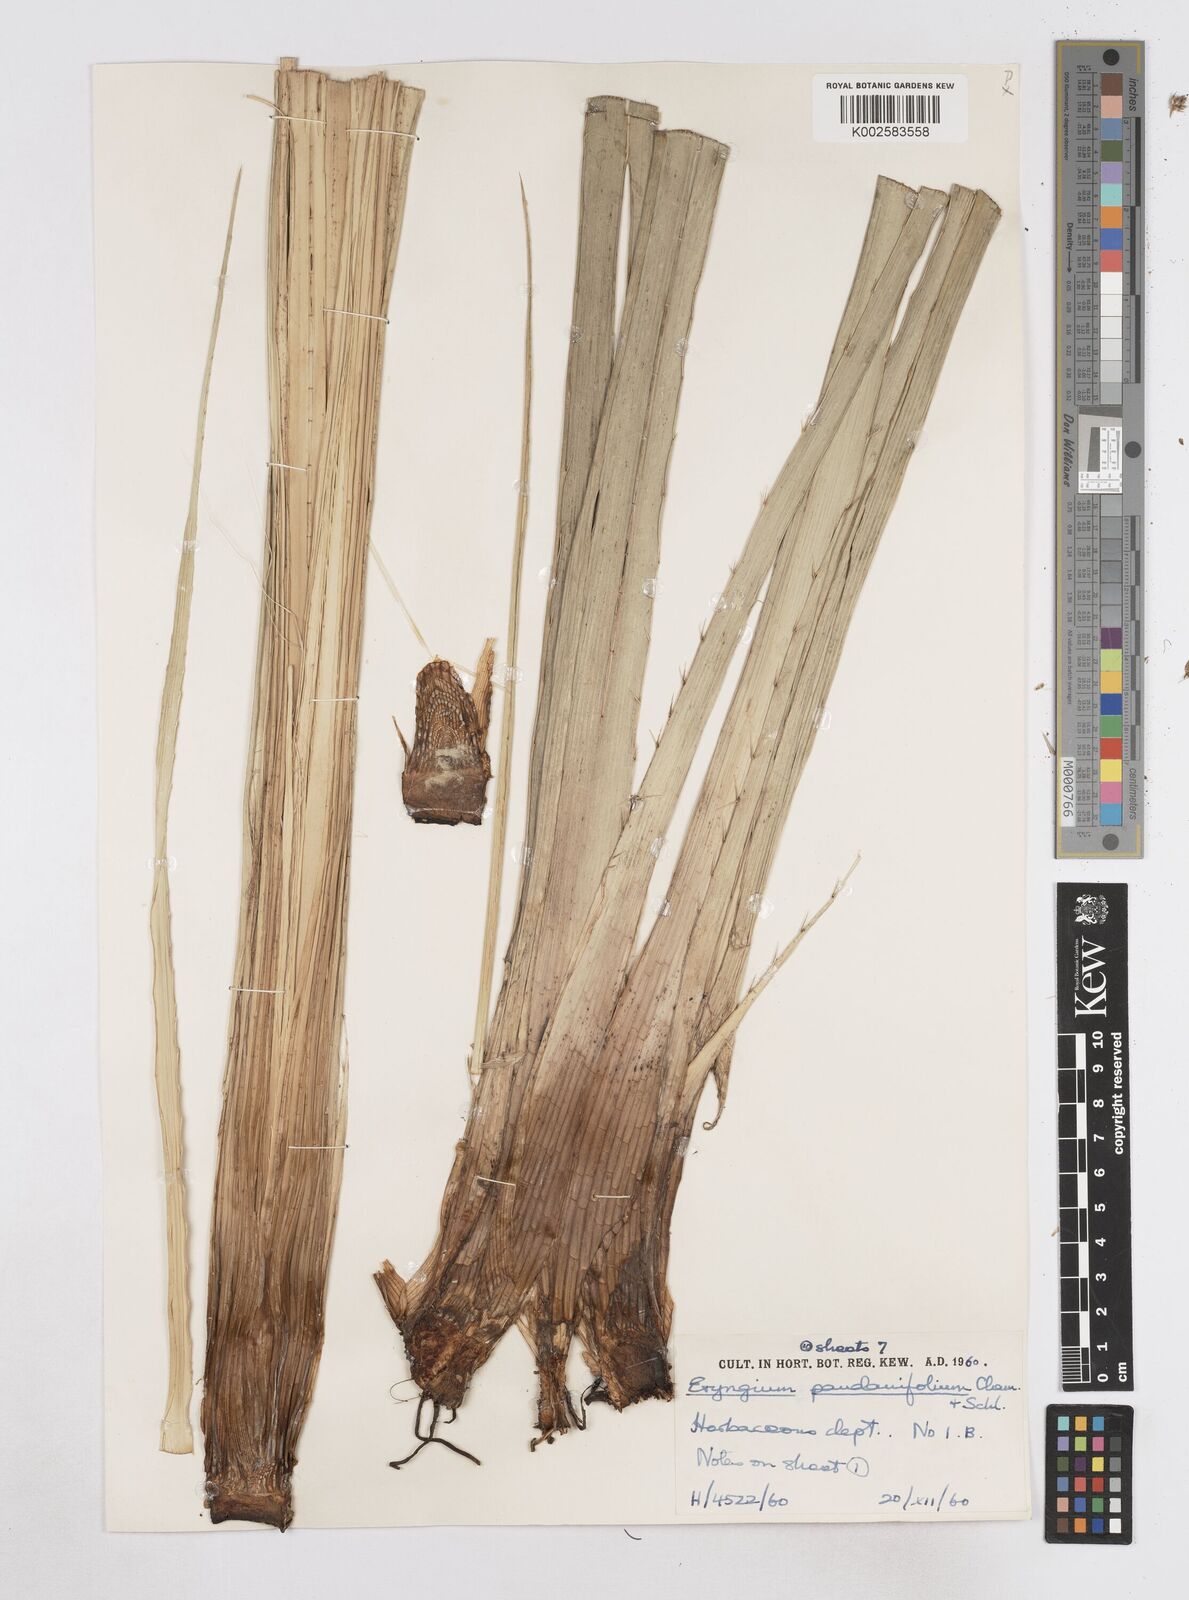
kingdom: Plantae
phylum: Tracheophyta
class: Magnoliopsida
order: Apiales
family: Apiaceae
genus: Eryngium
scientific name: Eryngium pandanifolium
